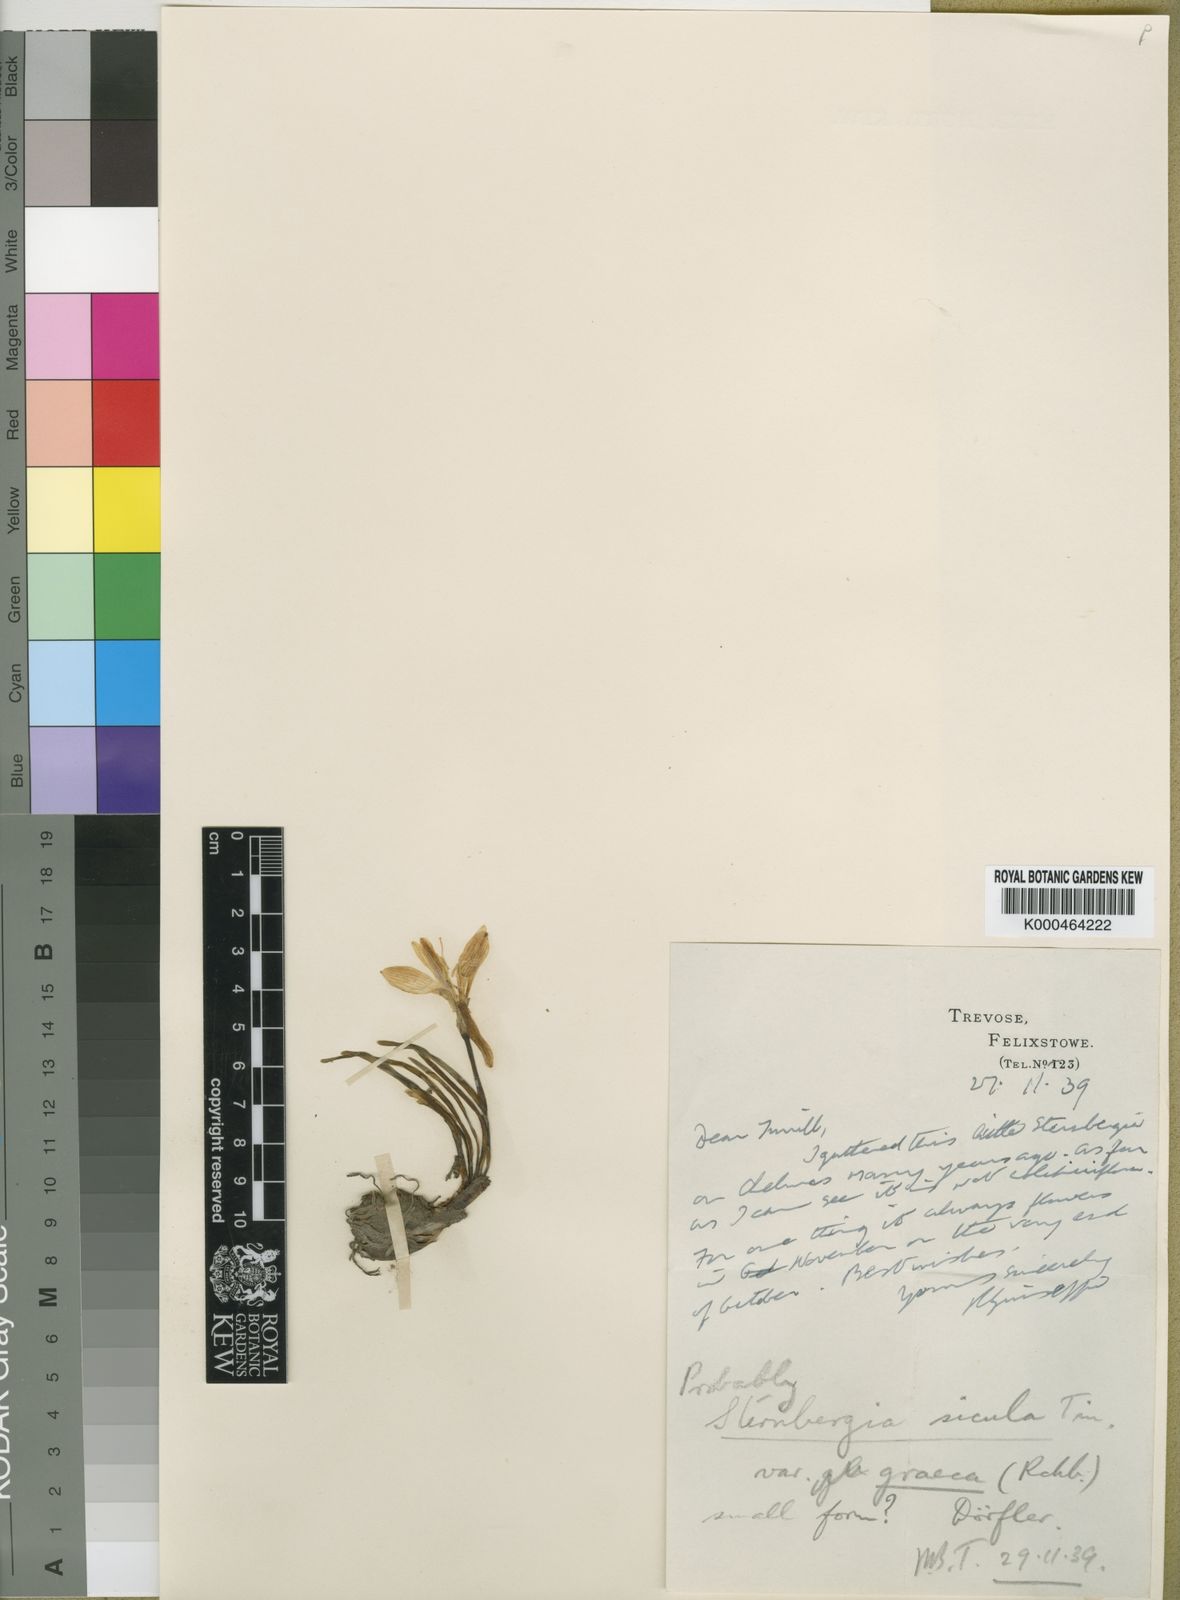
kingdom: Plantae
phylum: Tracheophyta
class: Liliopsida
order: Asparagales
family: Amaryllidaceae
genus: Sternbergia
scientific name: Sternbergia
